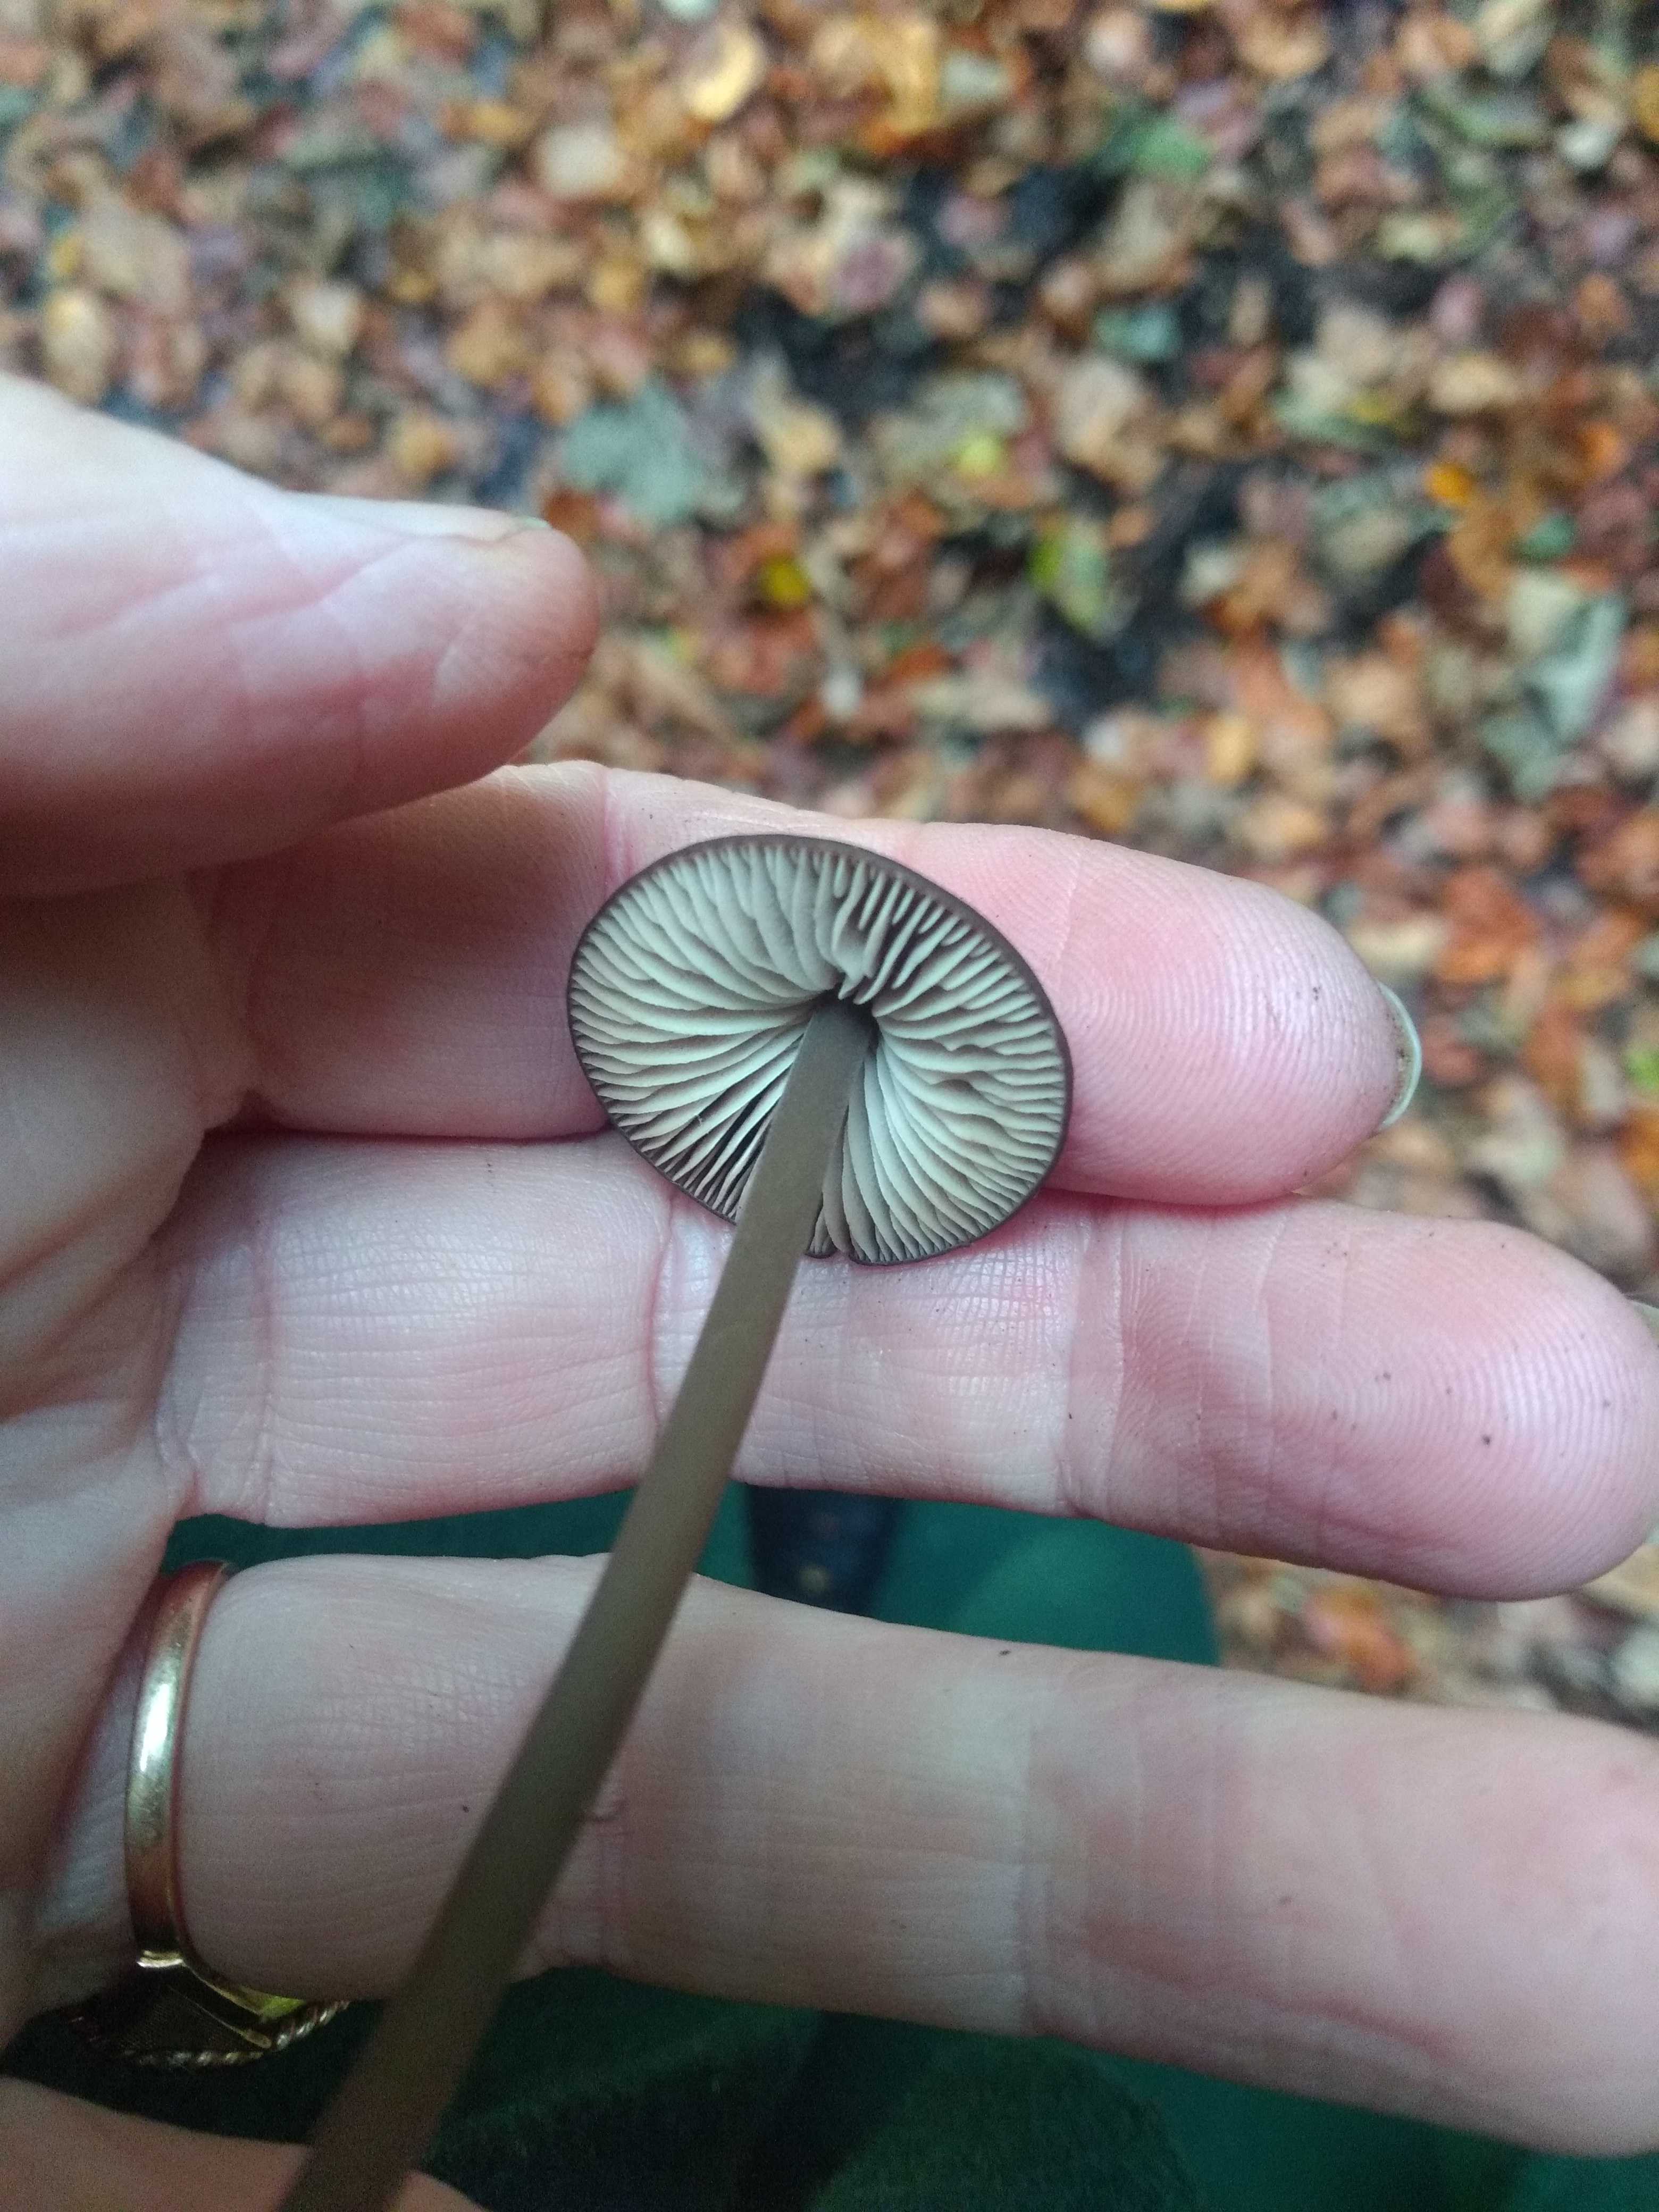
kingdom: Fungi
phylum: Basidiomycota
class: Agaricomycetes
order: Agaricales
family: Omphalotaceae
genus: Mycetinis
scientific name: Mycetinis alliaceus
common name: stor løghat
